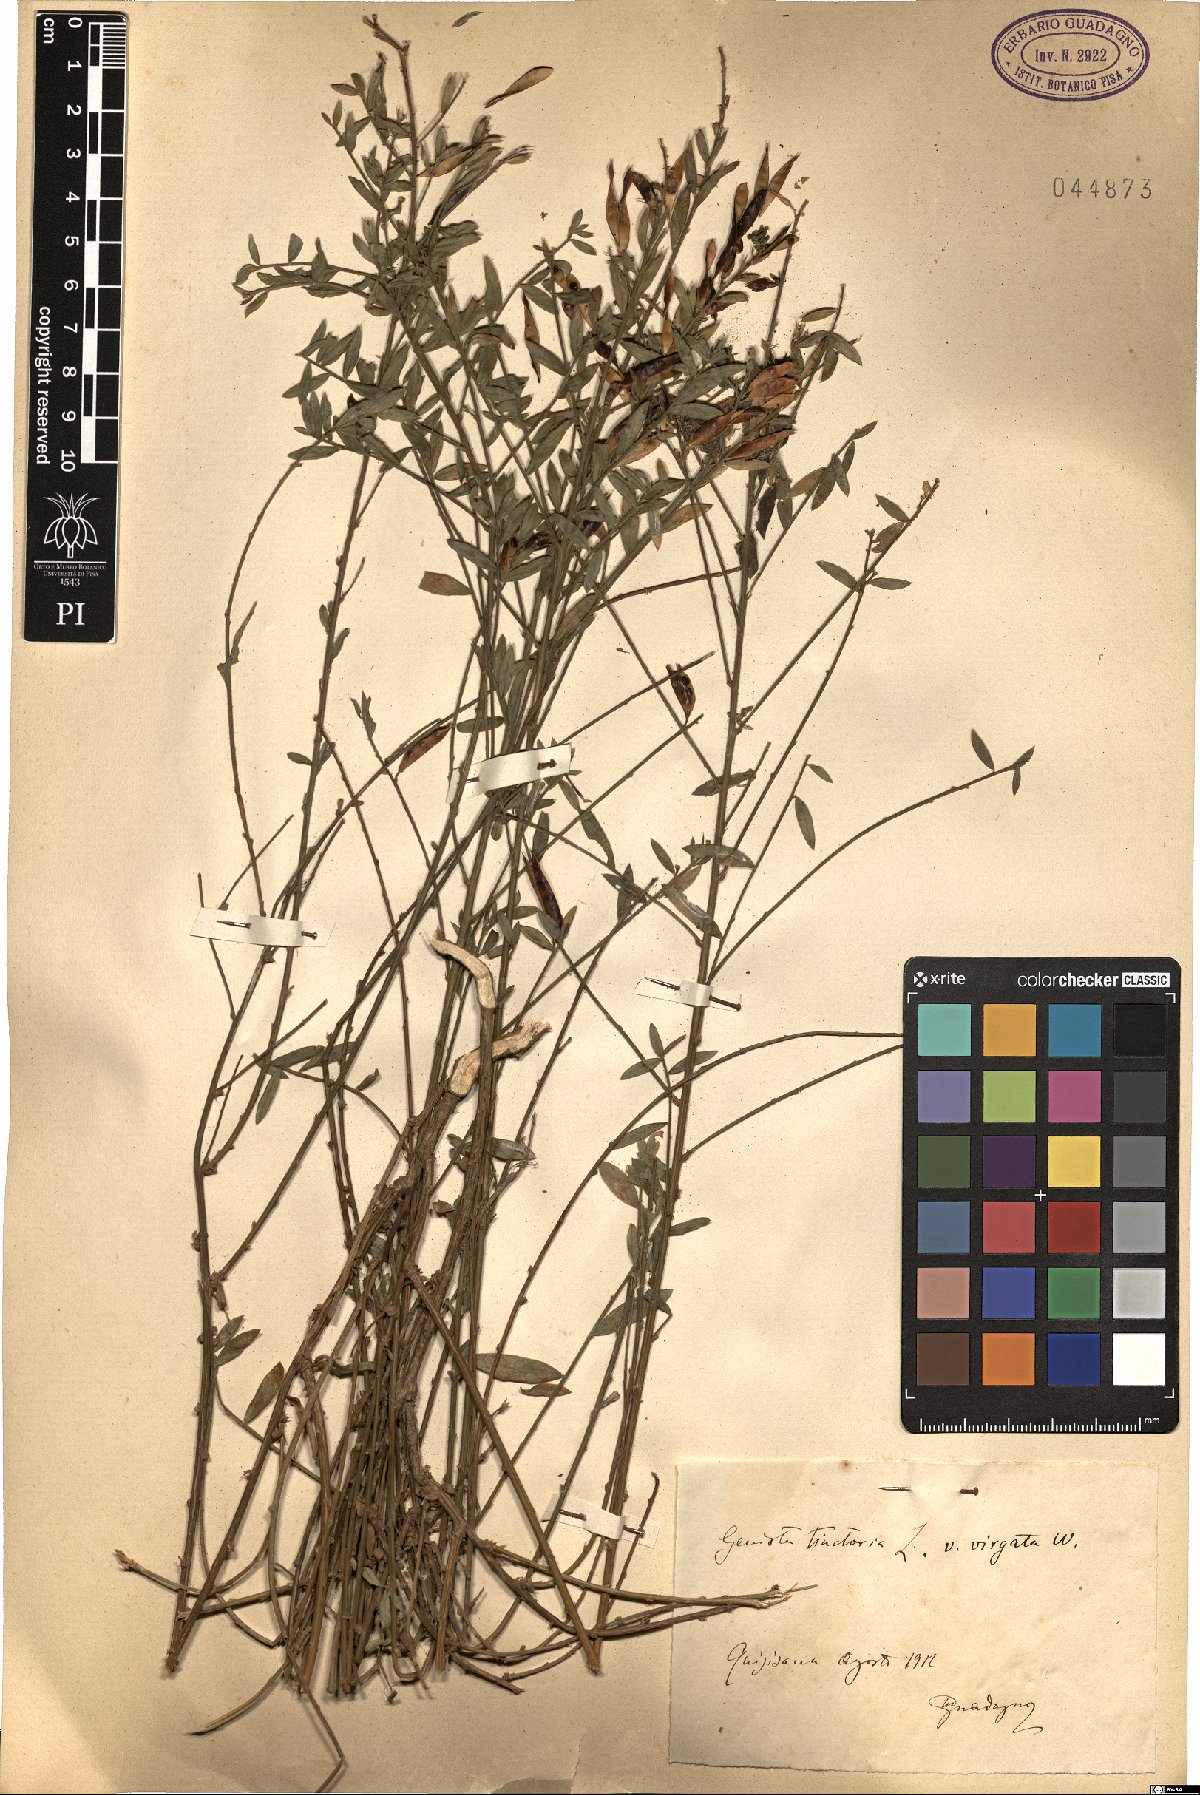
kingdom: Plantae
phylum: Tracheophyta
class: Magnoliopsida
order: Fabales
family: Fabaceae
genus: Genista
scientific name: Genista tinctoria
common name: Dyer's greenweed
